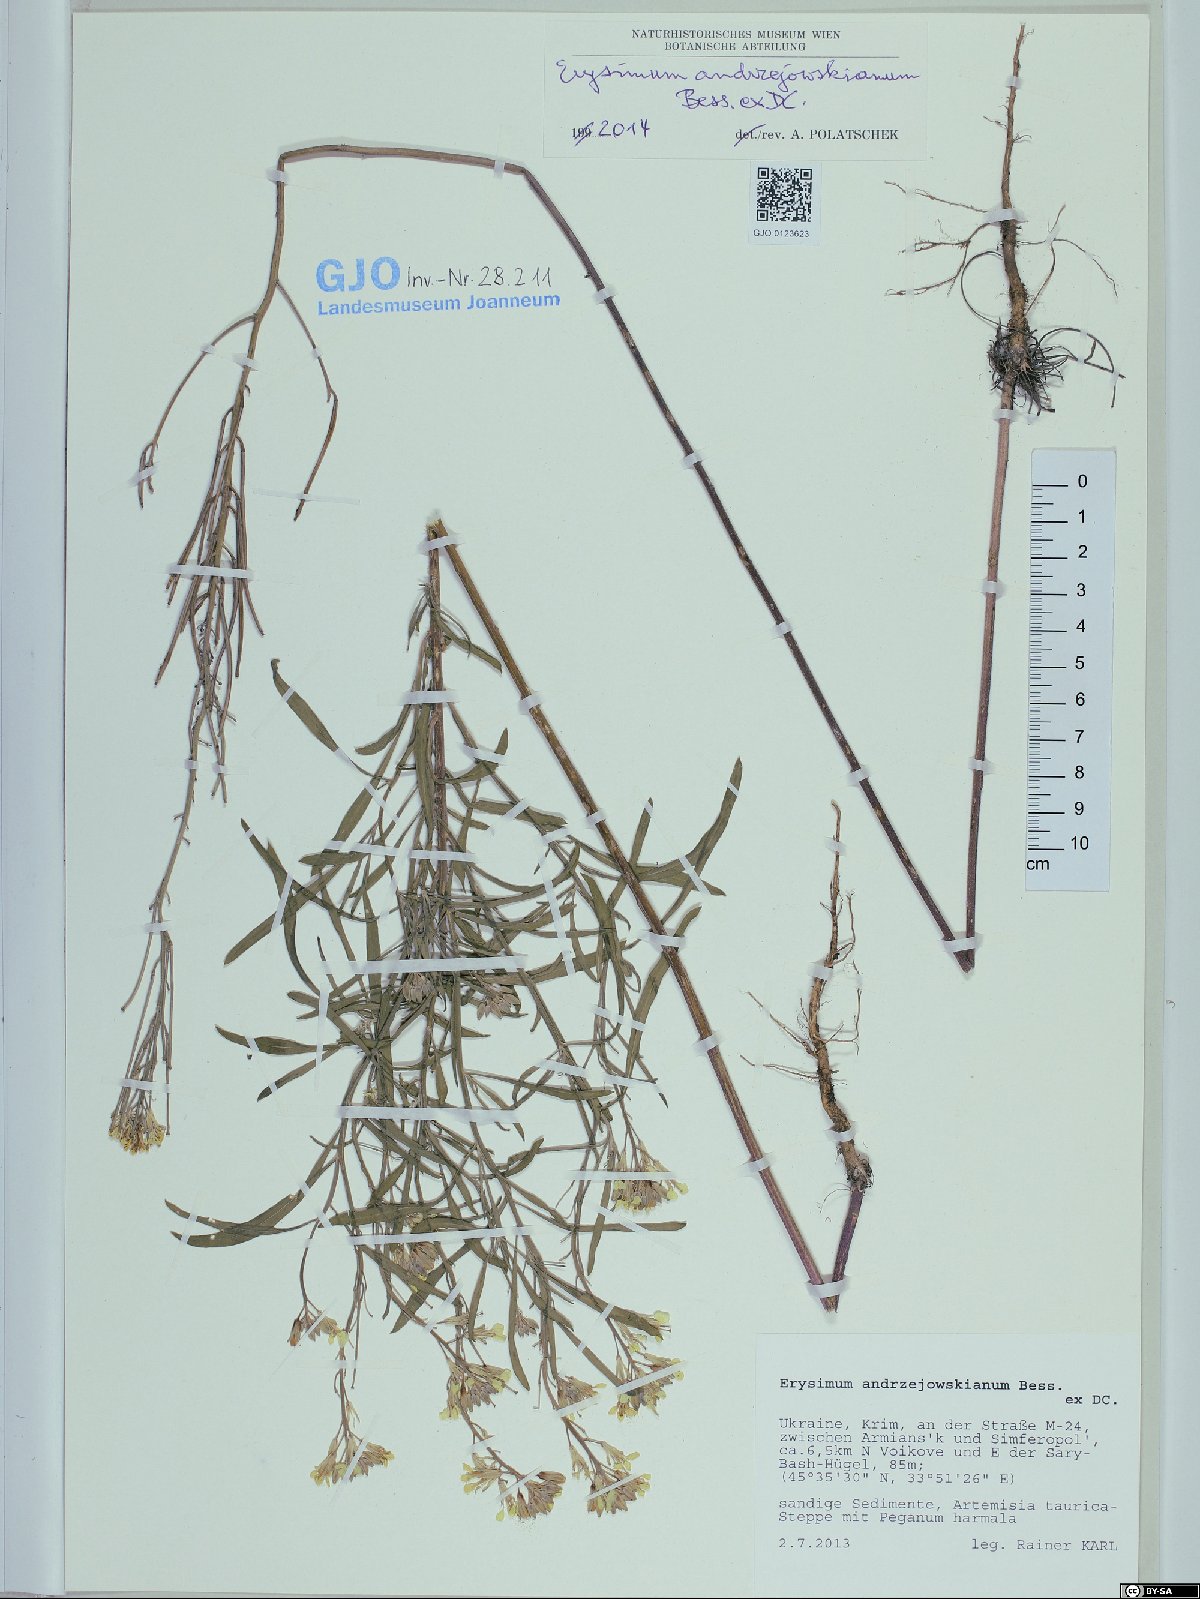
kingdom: Plantae
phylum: Tracheophyta
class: Magnoliopsida
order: Brassicales
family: Brassicaceae
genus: Erysimum
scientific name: Erysimum andrzejowskianum
